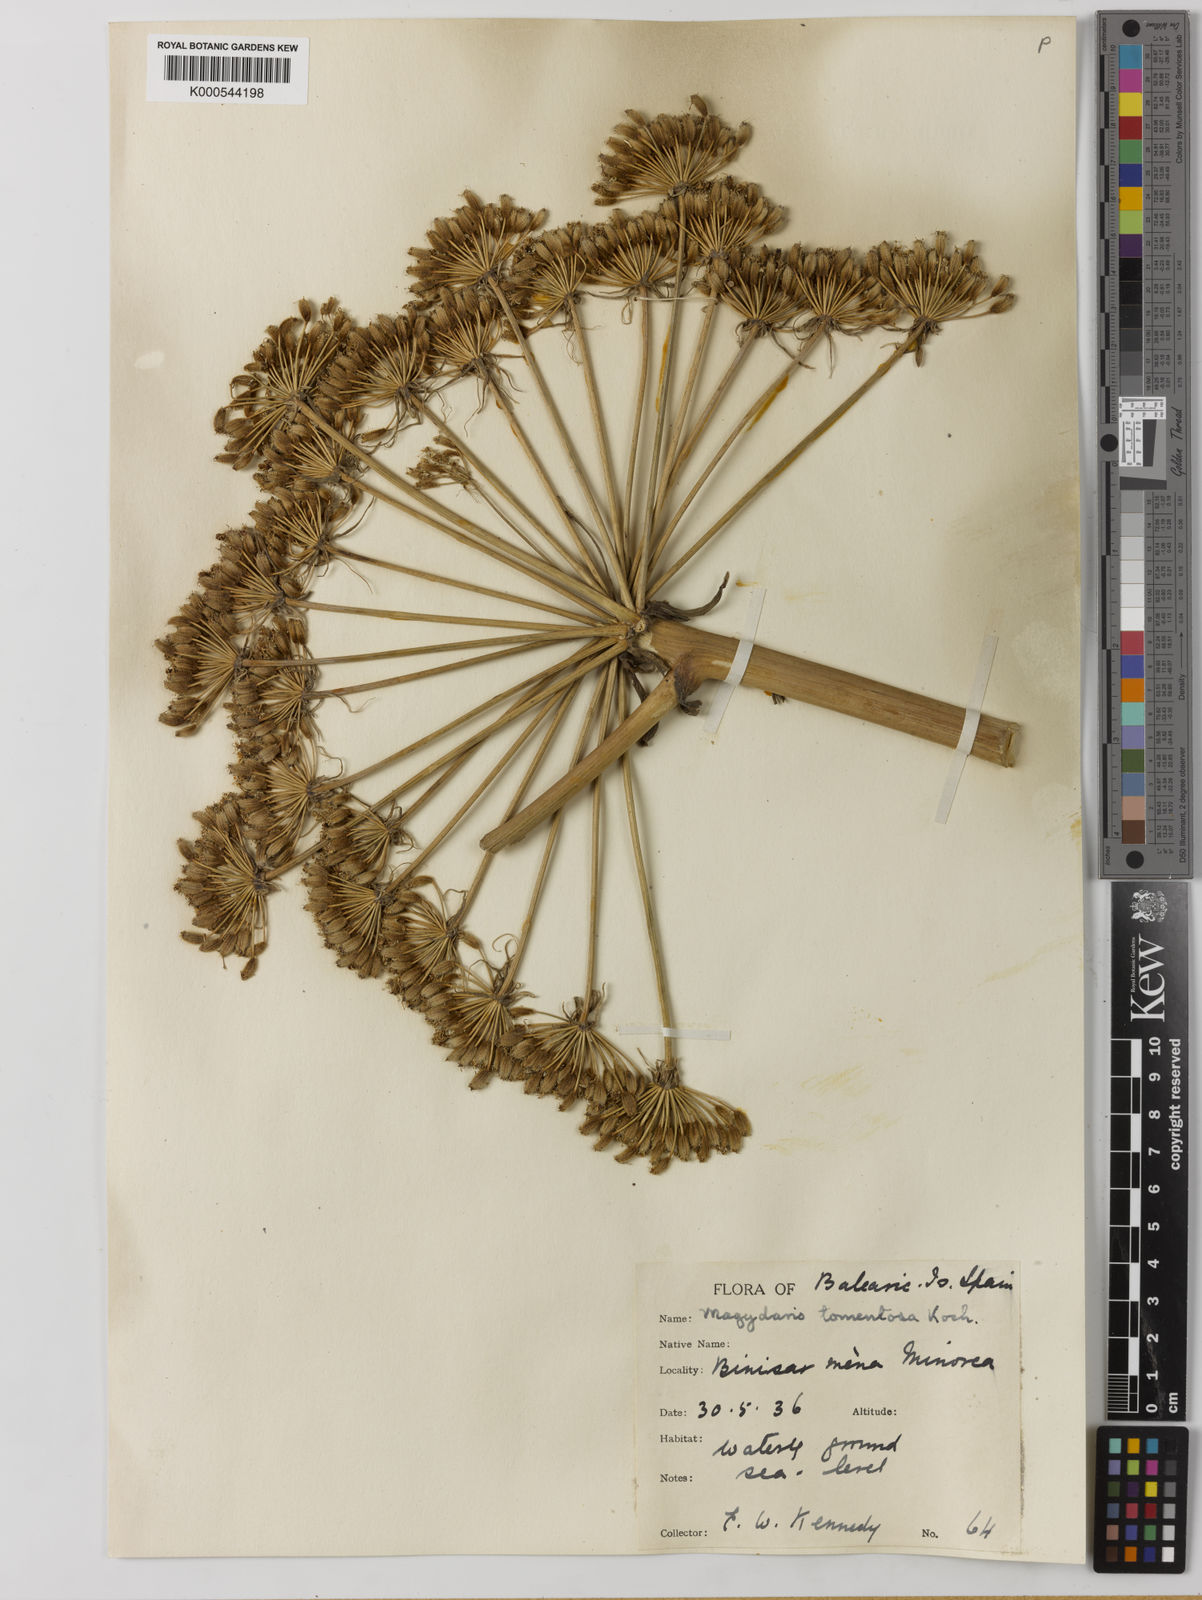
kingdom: Plantae
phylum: Tracheophyta
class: Magnoliopsida
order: Apiales
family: Apiaceae
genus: Magydaris
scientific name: Magydaris pastinacea
